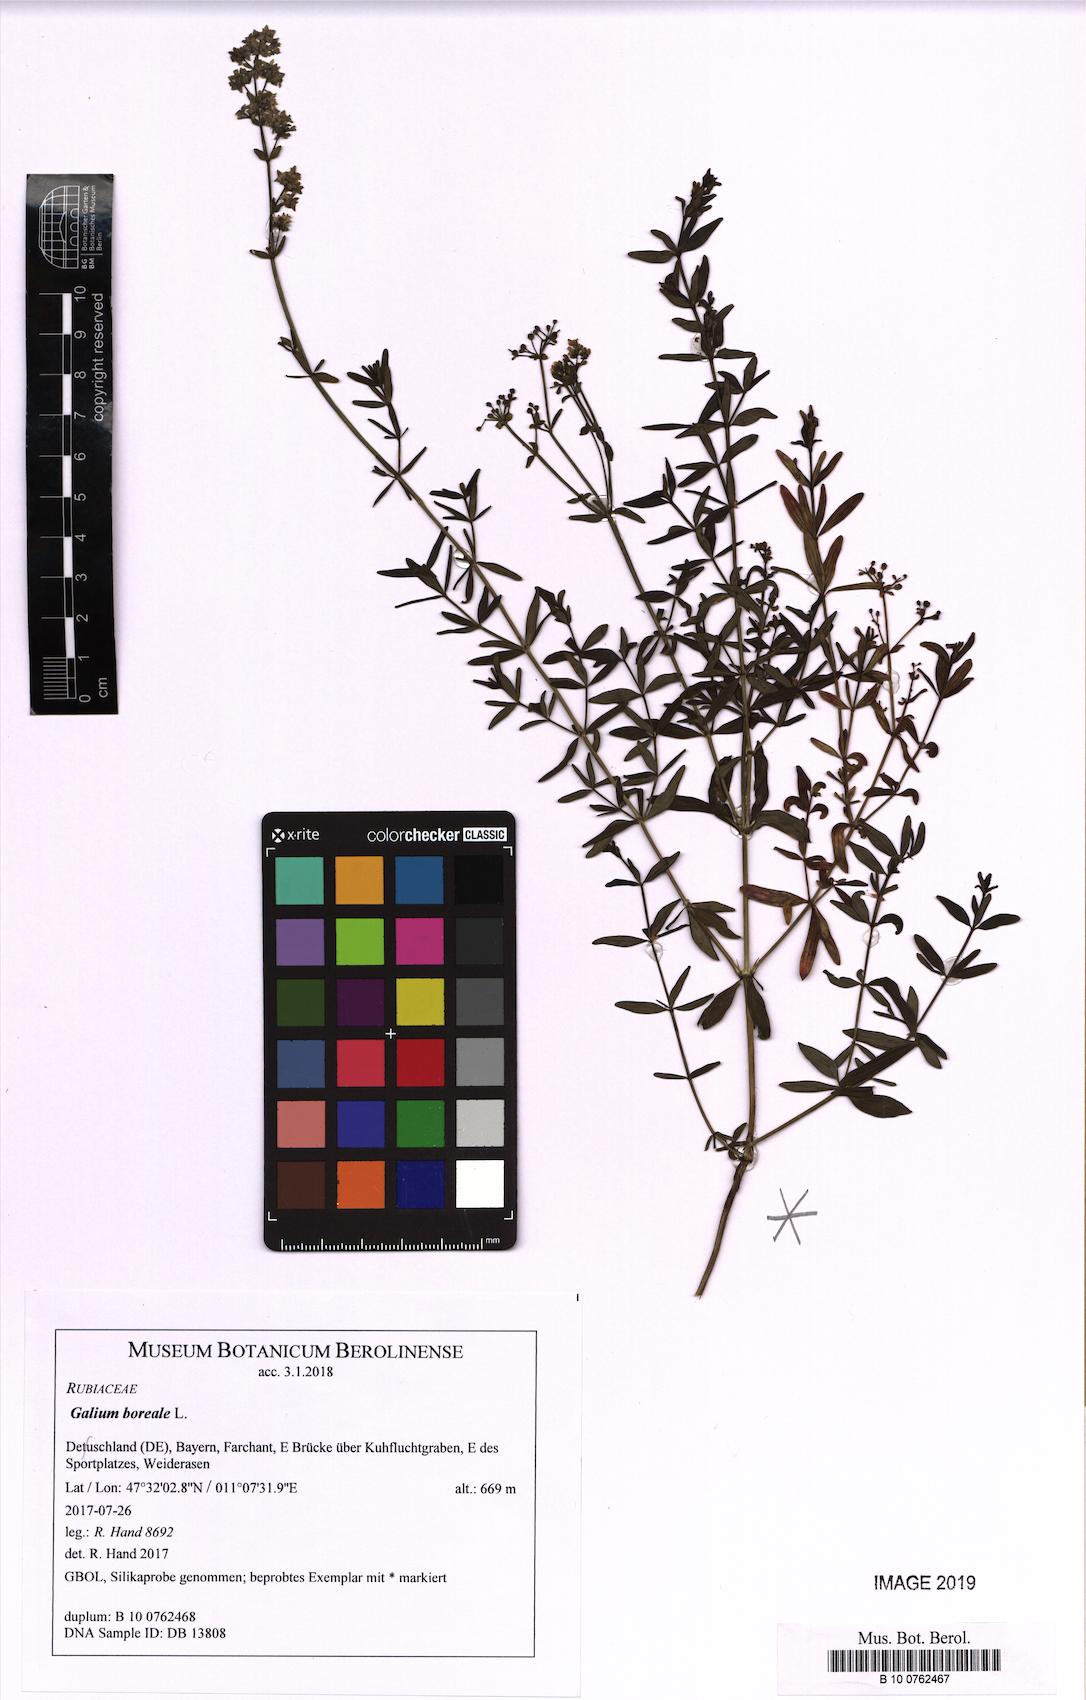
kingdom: Plantae
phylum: Tracheophyta
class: Magnoliopsida
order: Gentianales
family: Rubiaceae
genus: Galium
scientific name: Galium boreale
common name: Northern bedstraw
